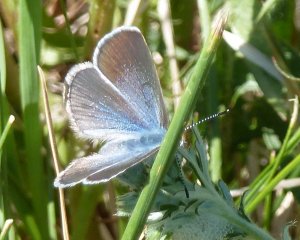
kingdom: Animalia
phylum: Arthropoda
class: Insecta
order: Lepidoptera
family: Lycaenidae
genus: Glaucopsyche
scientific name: Glaucopsyche lygdamus
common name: Silvery Blue
